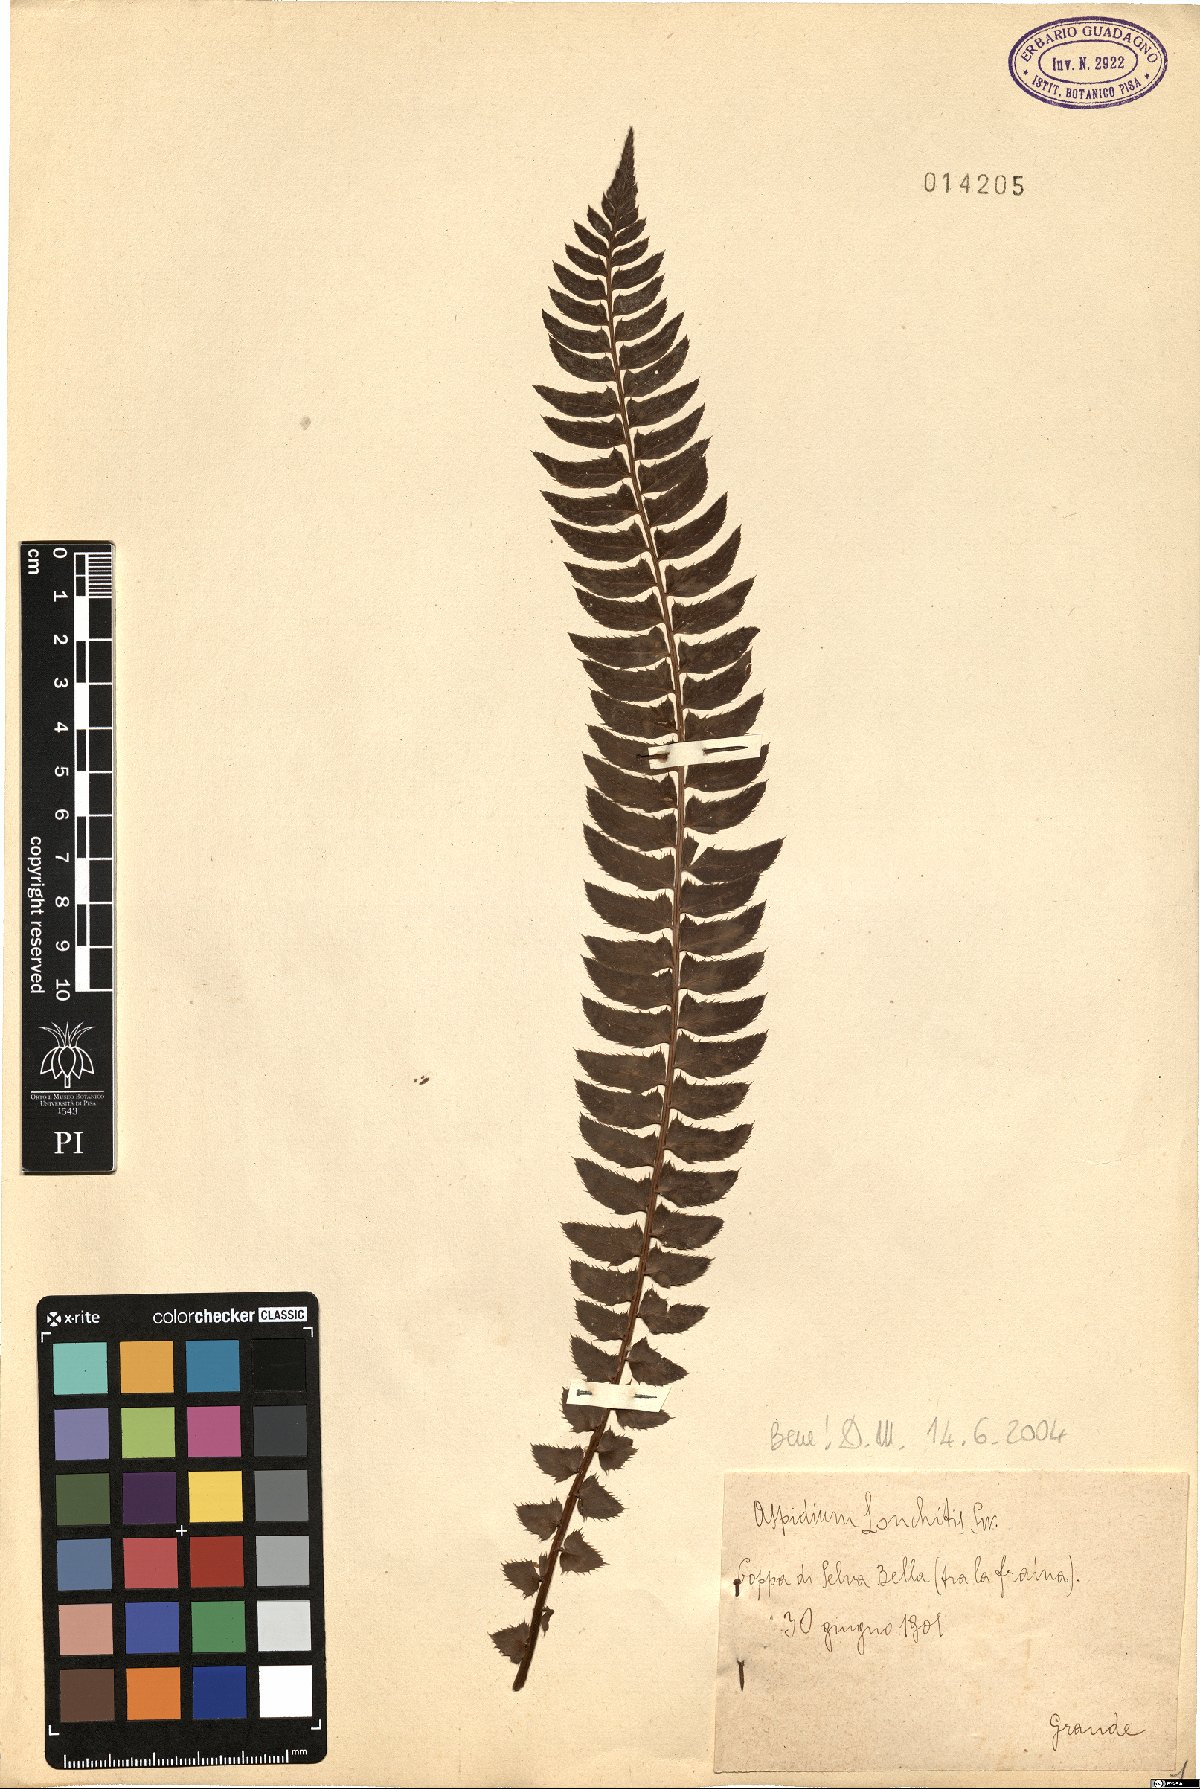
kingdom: Plantae
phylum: Tracheophyta
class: Polypodiopsida
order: Polypodiales
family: Dryopteridaceae
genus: Polystichum
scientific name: Polystichum lonchitis
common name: Holly fern
